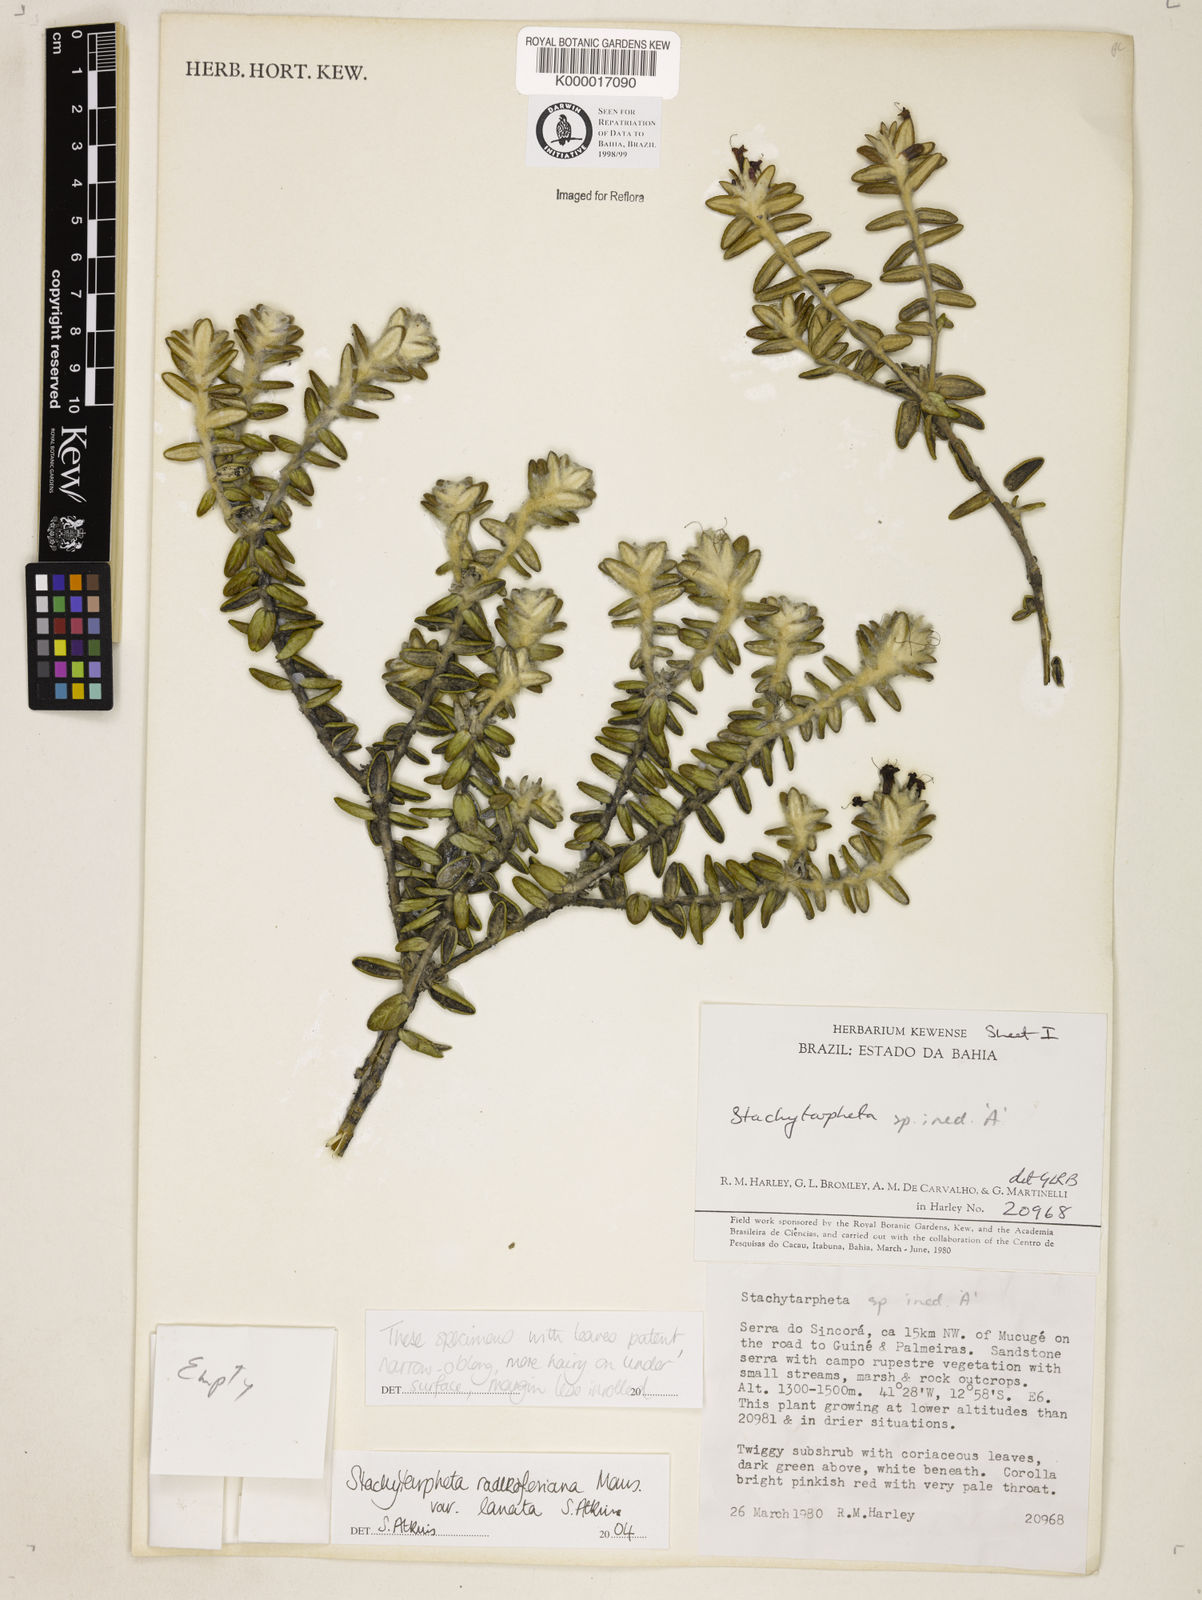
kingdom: Plantae
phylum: Tracheophyta
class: Magnoliopsida
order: Lamiales
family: Verbenaceae
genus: Stachytarpheta
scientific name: Stachytarpheta radlkoferiana
